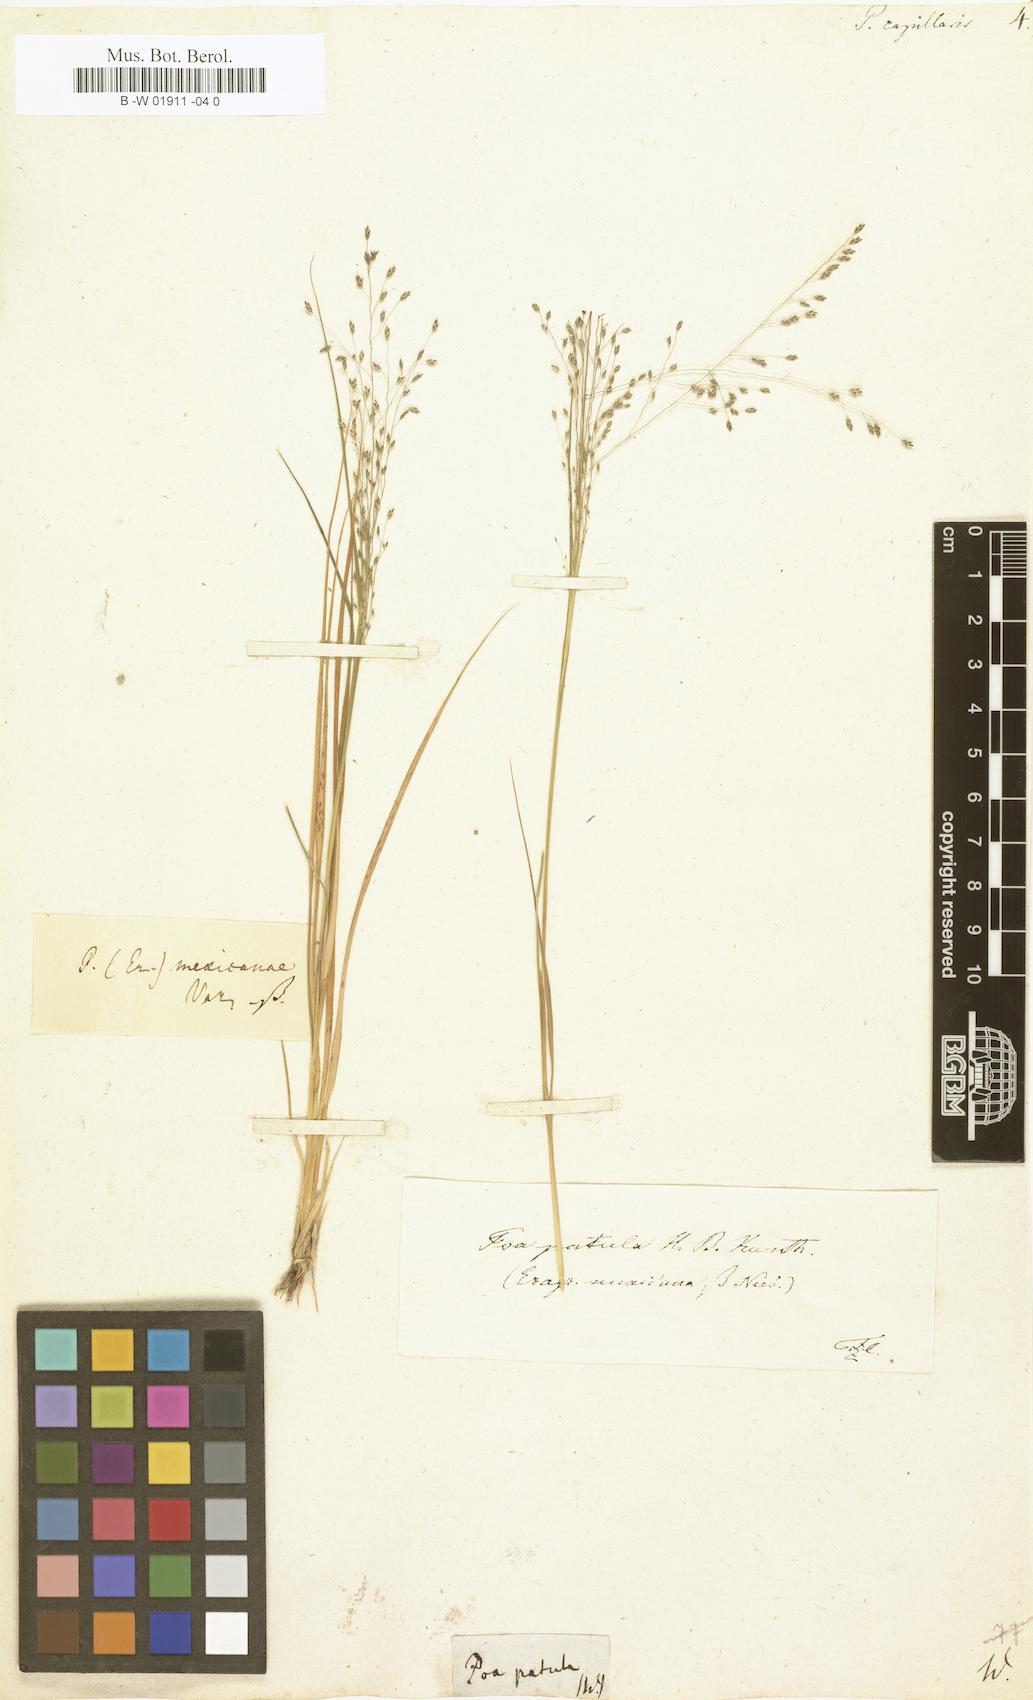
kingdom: Plantae
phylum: Tracheophyta
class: Liliopsida
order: Poales
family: Poaceae
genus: Poa
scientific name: Poa capillaris
